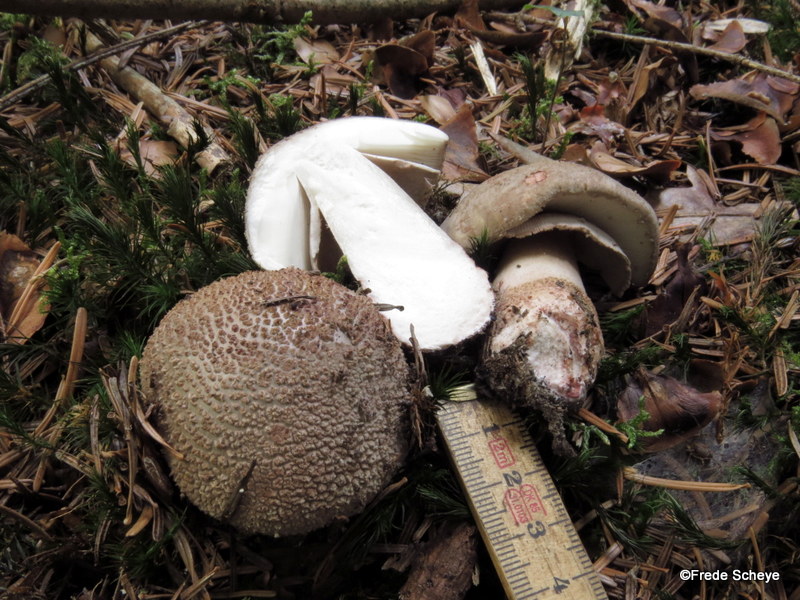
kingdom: Fungi
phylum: Basidiomycota
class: Agaricomycetes
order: Agaricales
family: Amanitaceae
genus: Amanita
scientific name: Amanita rubescens
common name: rødmende fluesvamp
